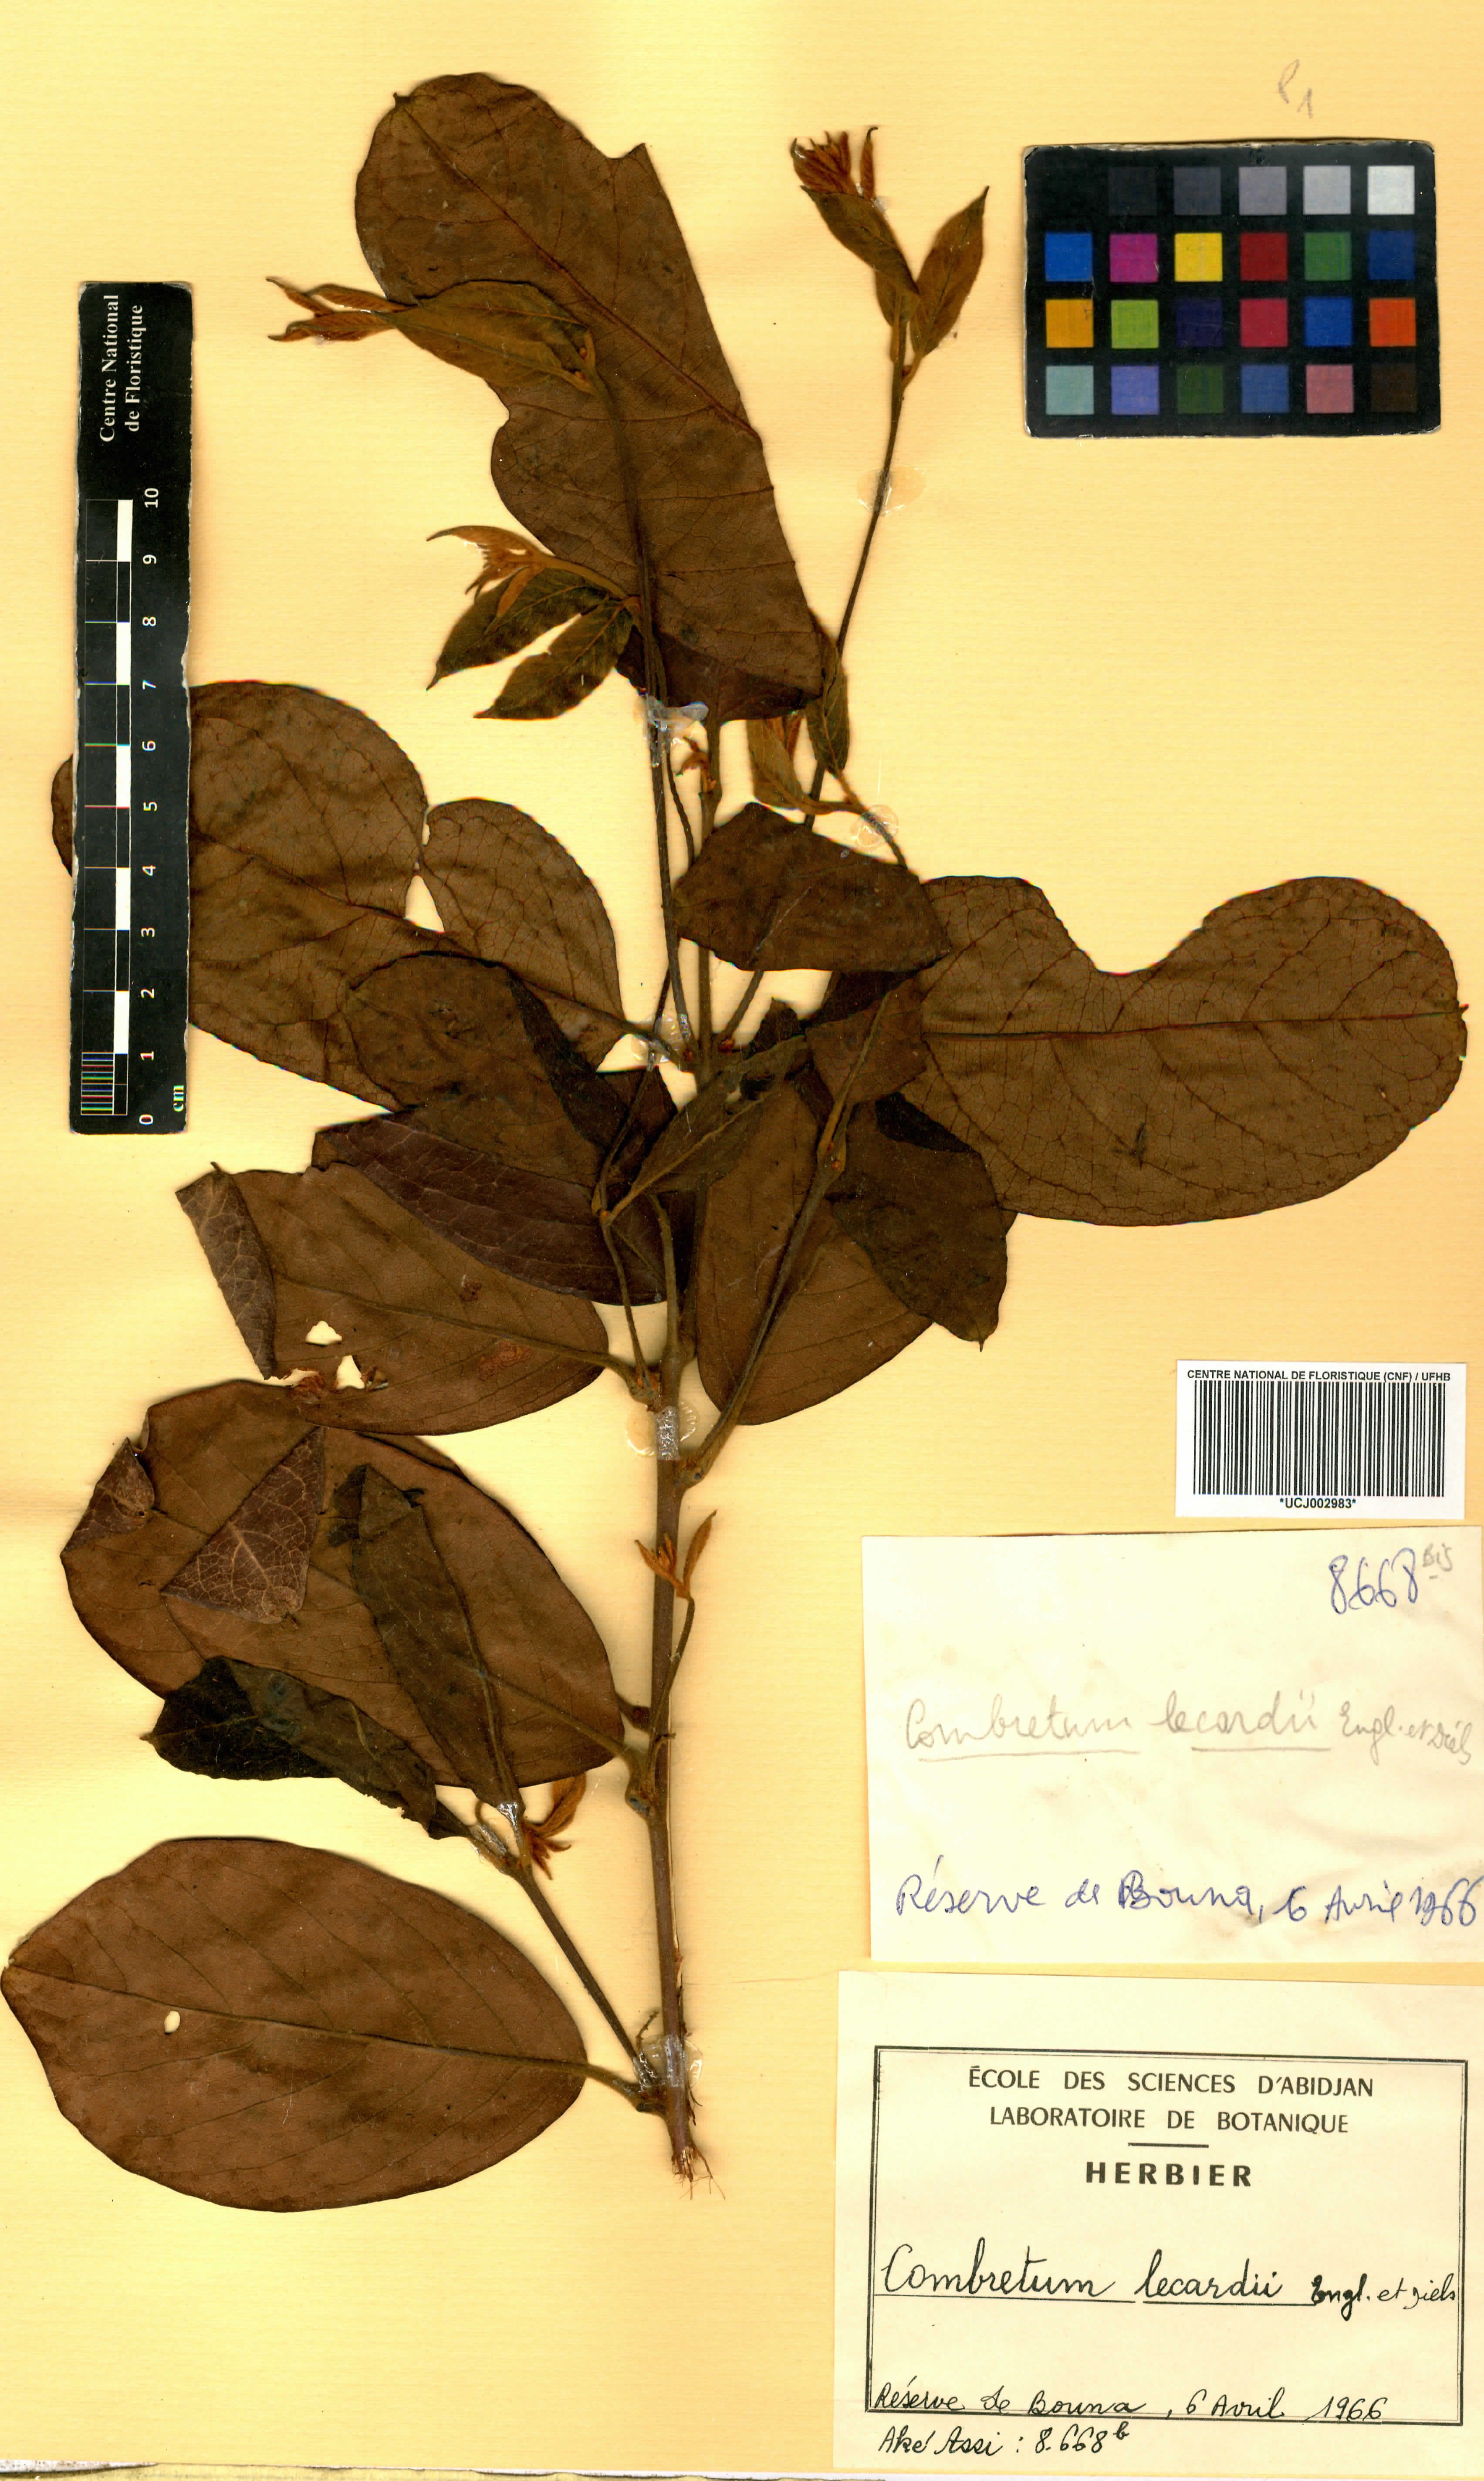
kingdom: Plantae
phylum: Tracheophyta
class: Magnoliopsida
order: Myrtales
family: Combretaceae
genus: Combretum
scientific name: Combretum lecardii
